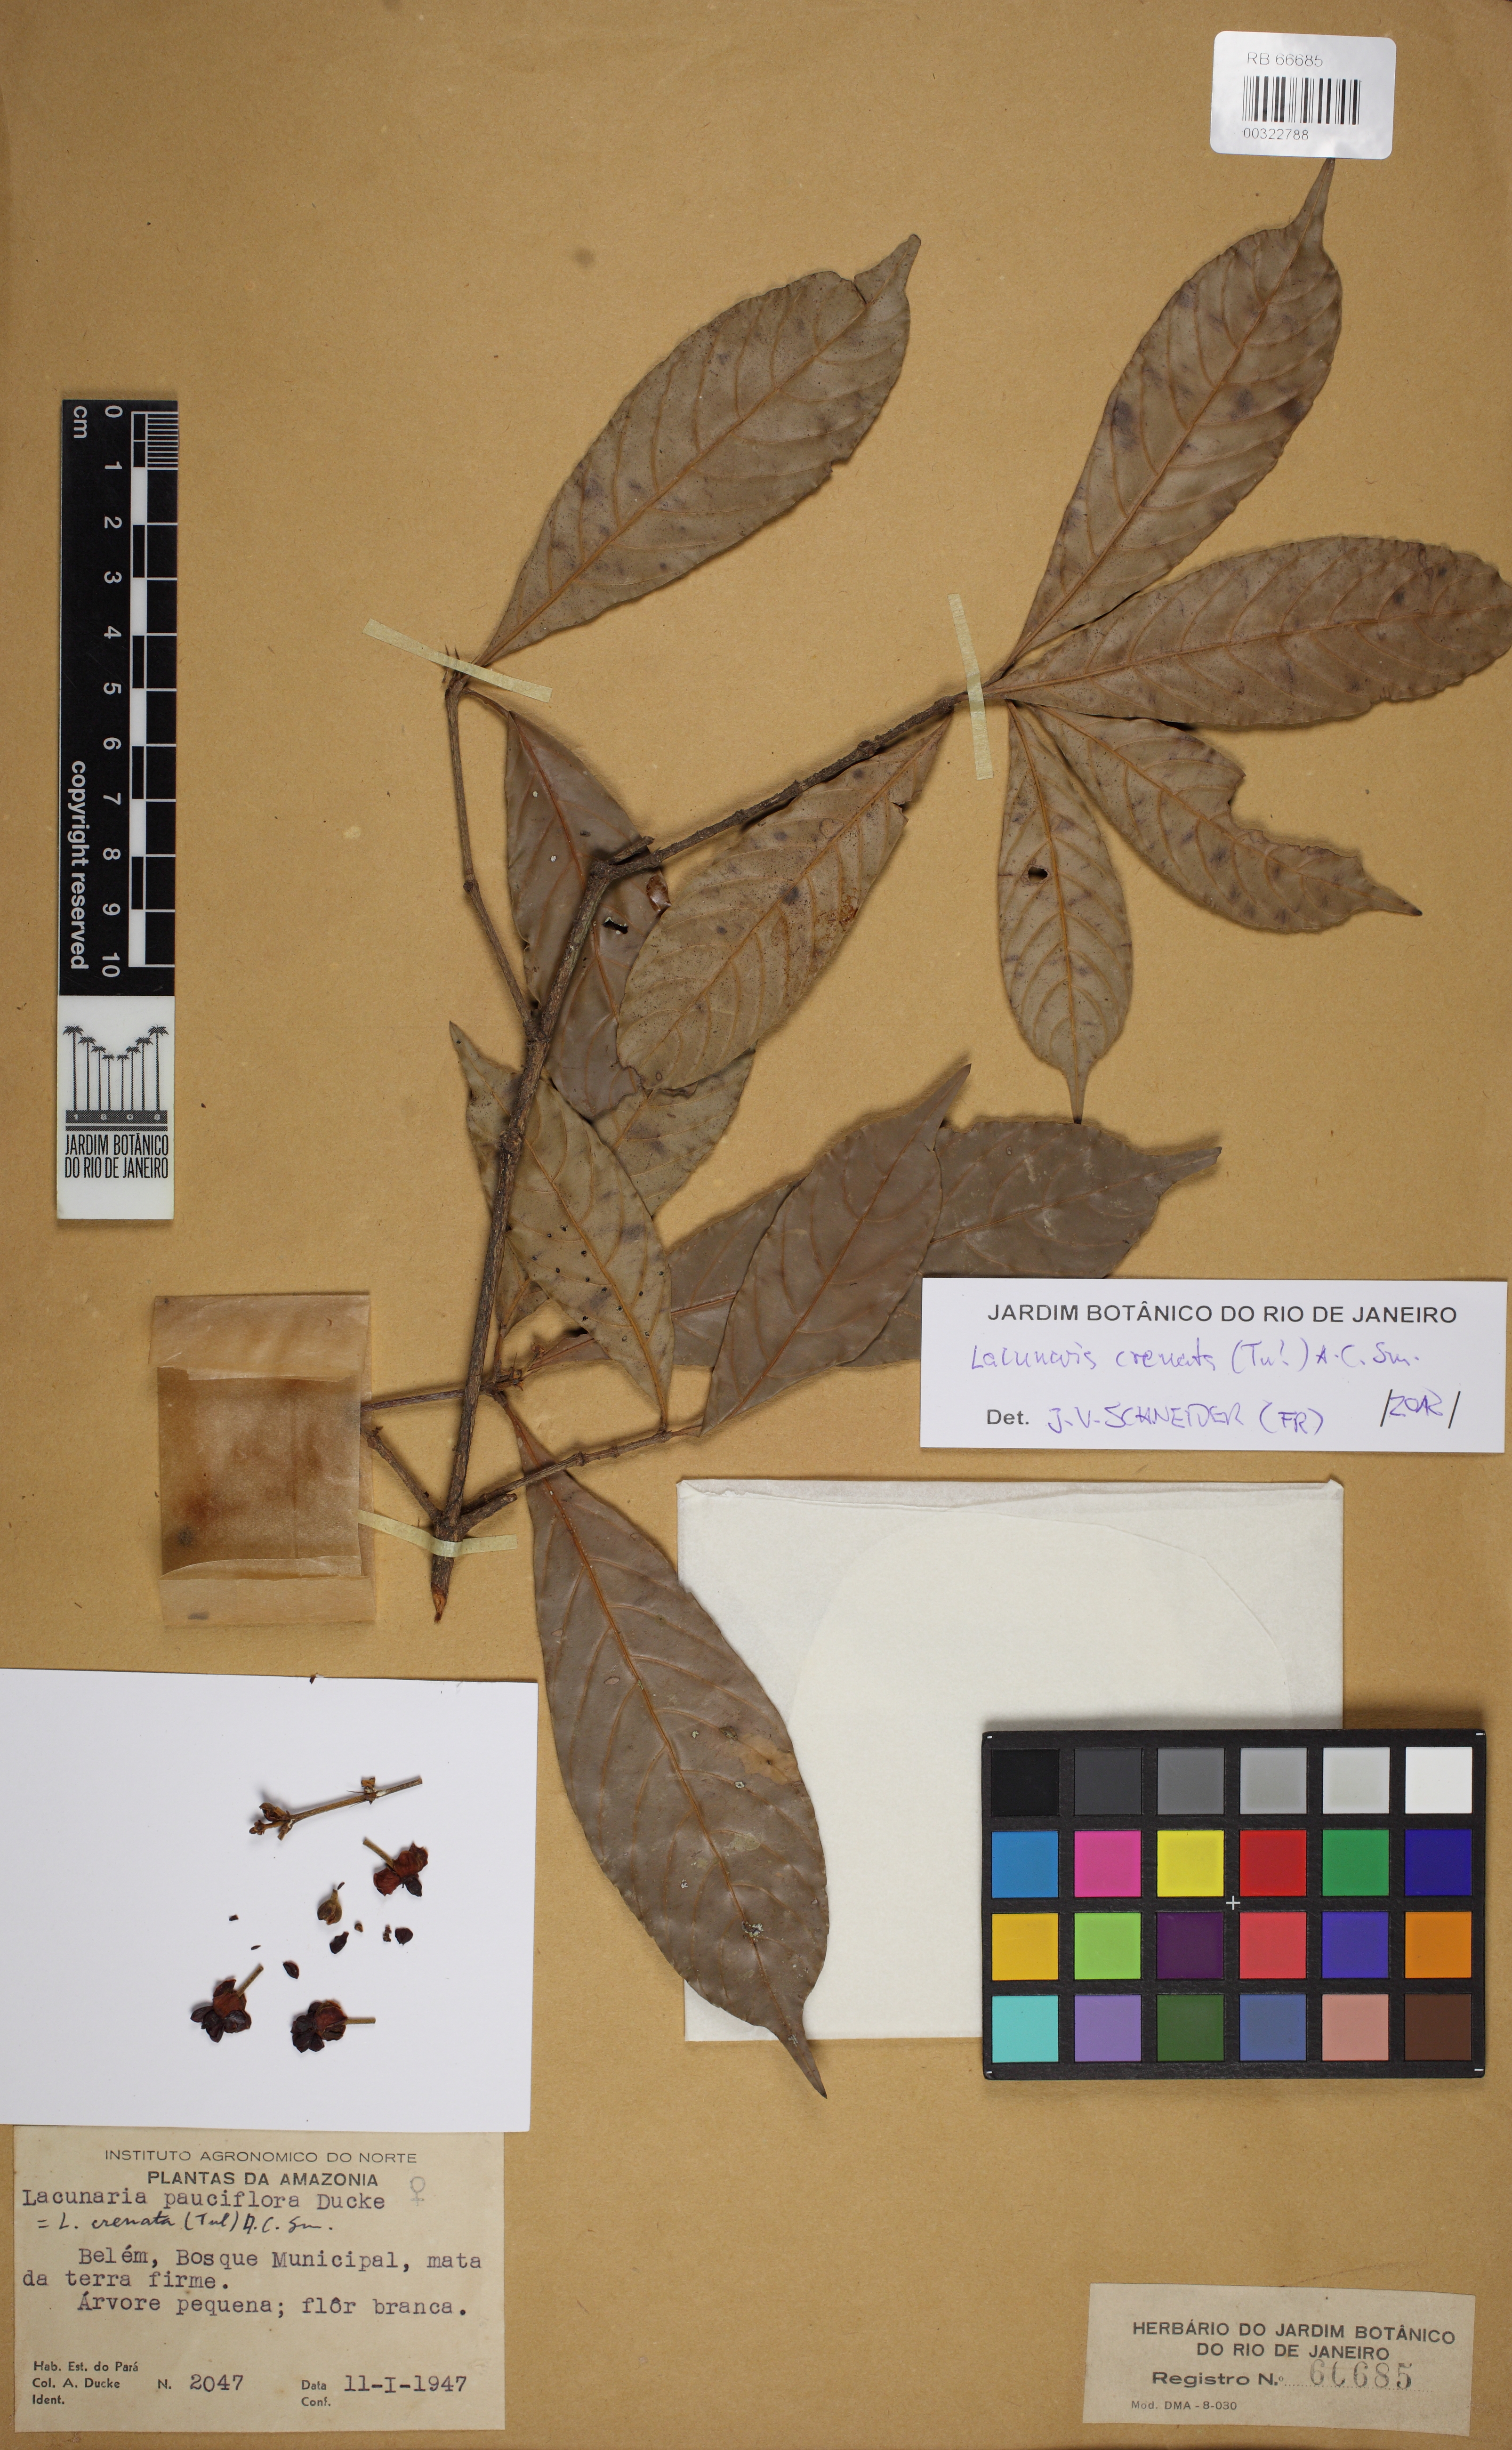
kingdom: Plantae
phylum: Tracheophyta
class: Magnoliopsida
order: Malpighiales
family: Quiinaceae
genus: Lacunaria
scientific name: Lacunaria crenata
